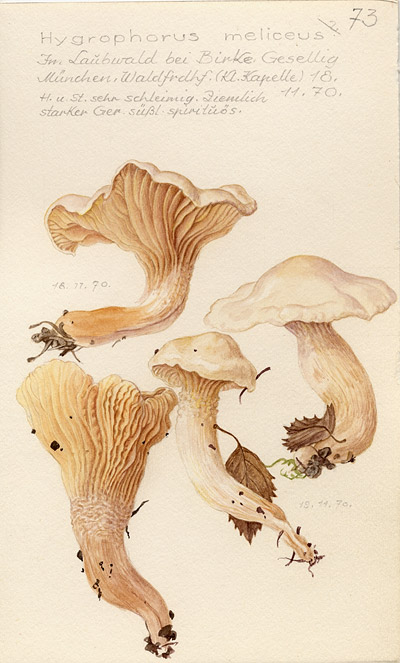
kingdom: Fungi
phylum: Basidiomycota
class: Agaricomycetes
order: Agaricales
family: Hygrophoraceae
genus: Hygrophorus
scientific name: Hygrophorus hedrychii
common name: Sweet woodwax
